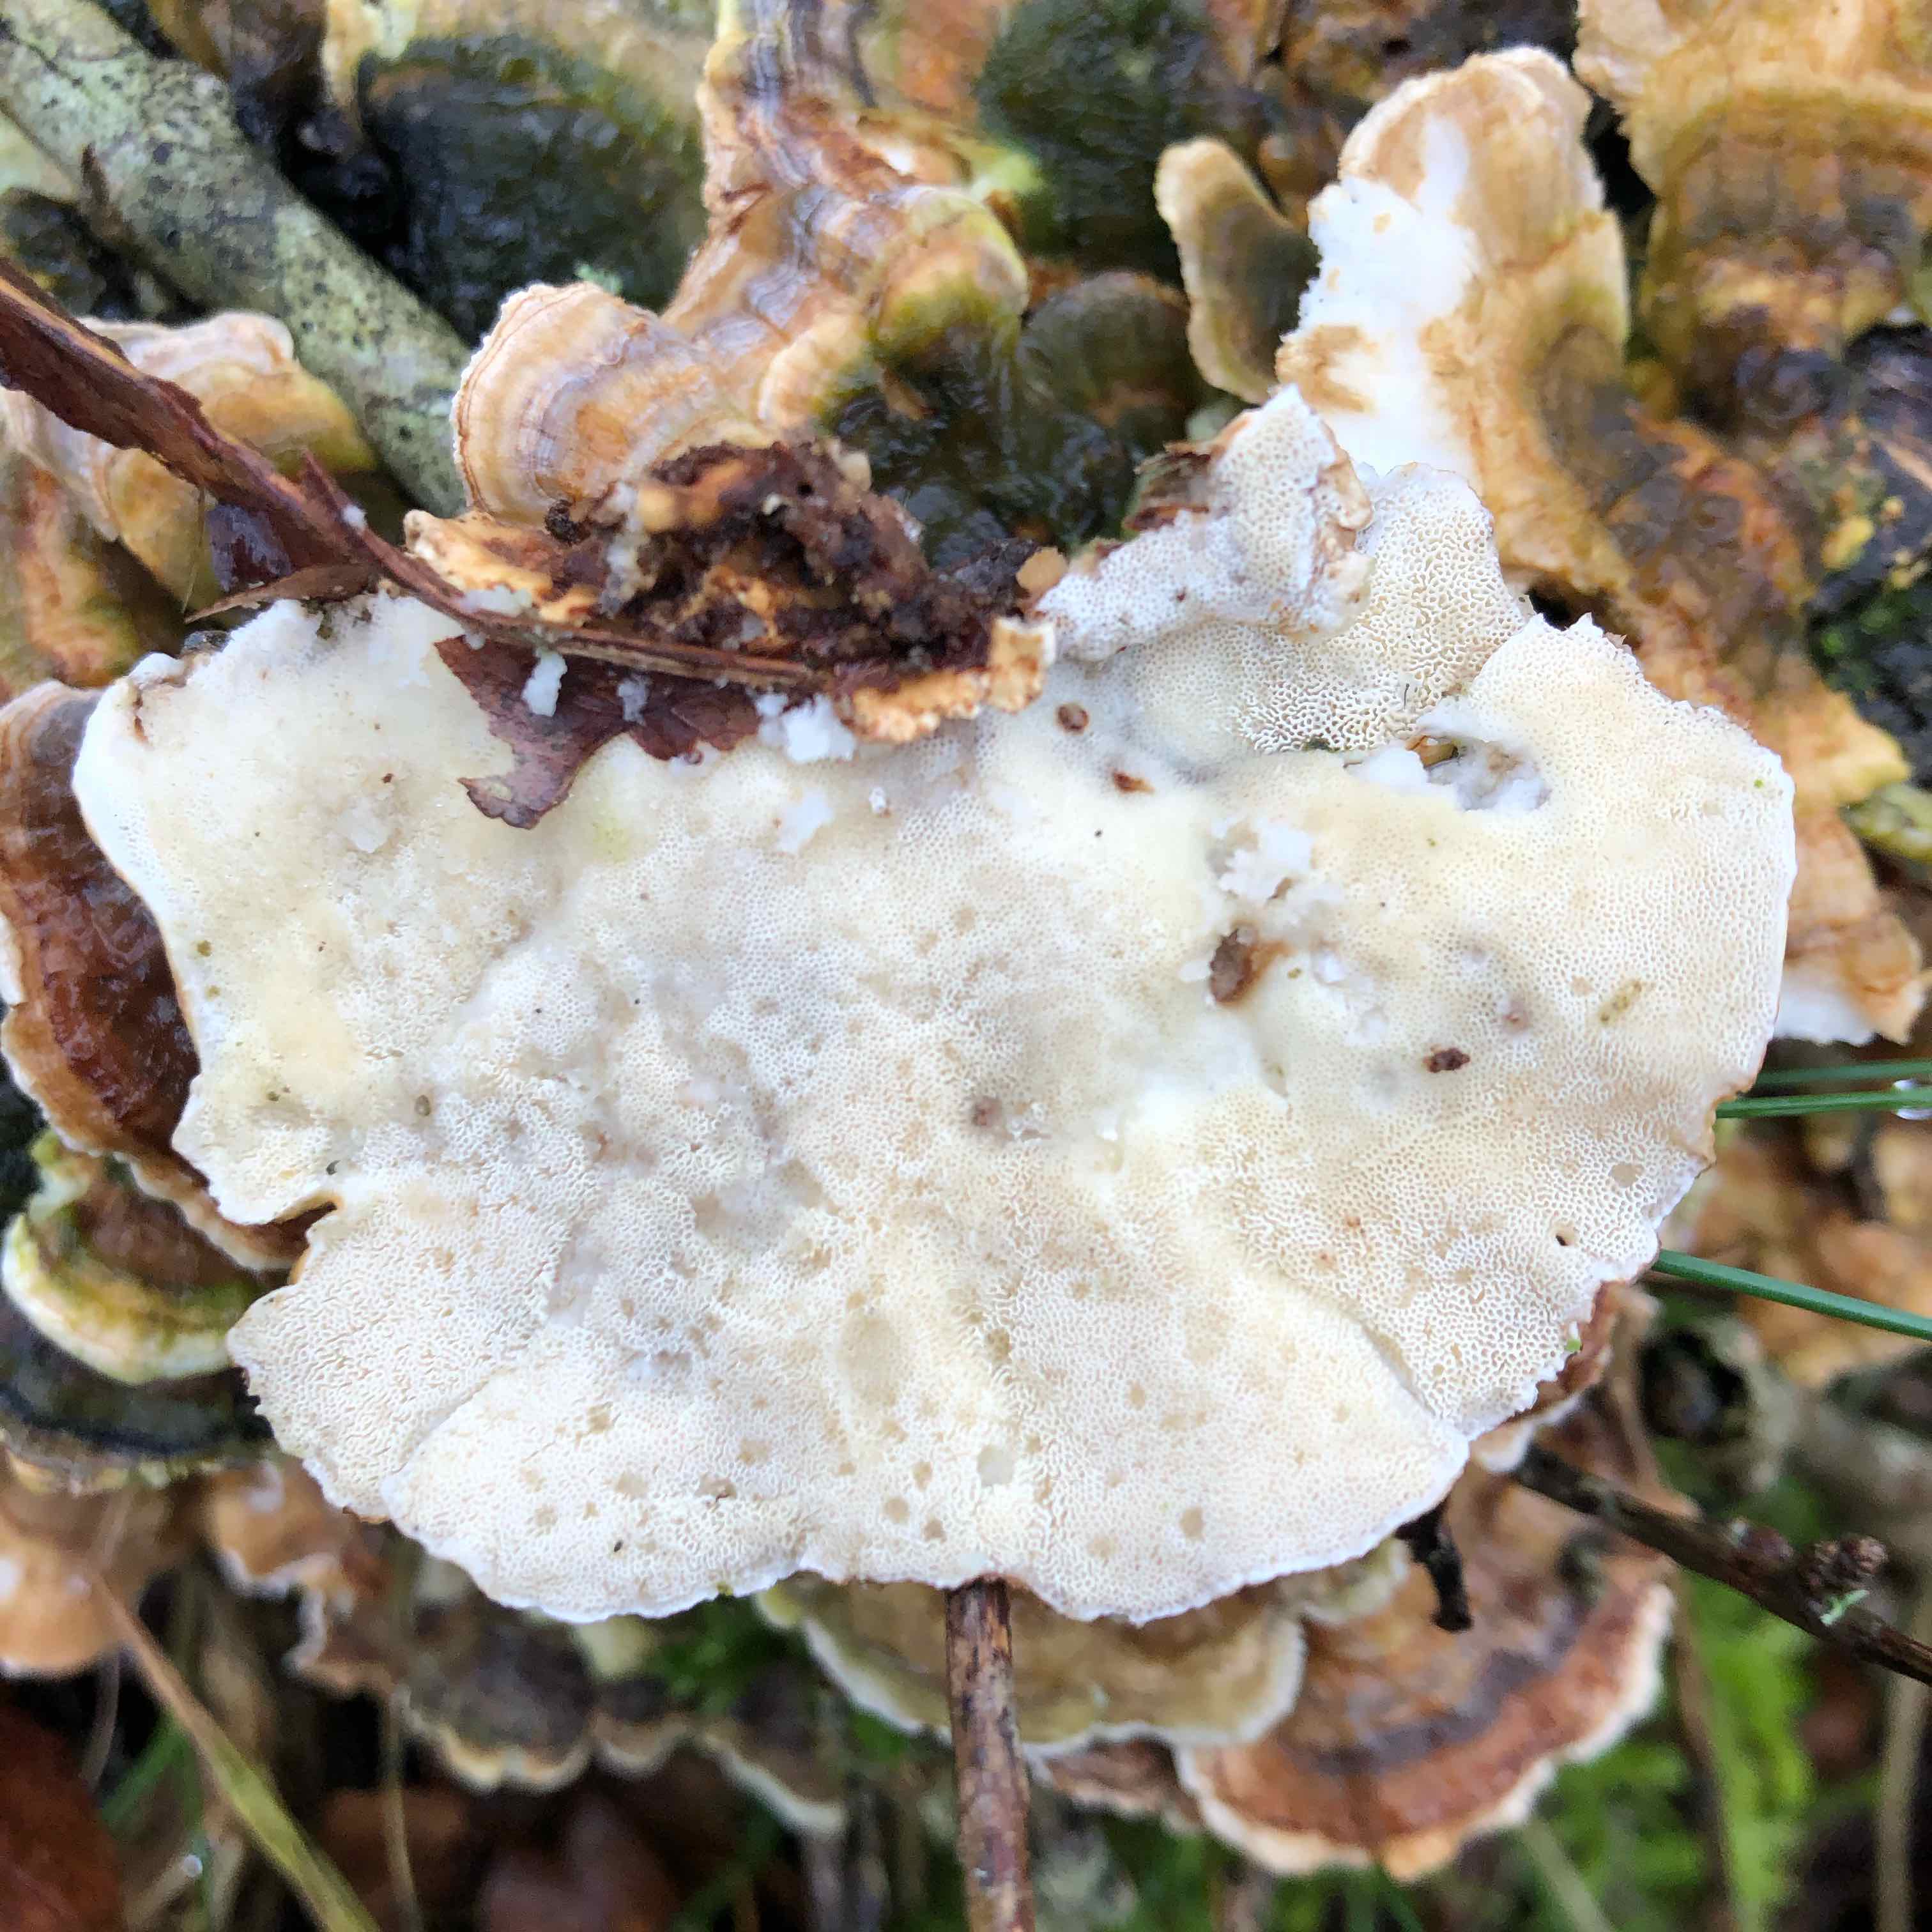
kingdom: Fungi
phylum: Basidiomycota
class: Agaricomycetes
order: Polyporales
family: Polyporaceae
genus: Trametes
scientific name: Trametes versicolor
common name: broget læderporesvamp
